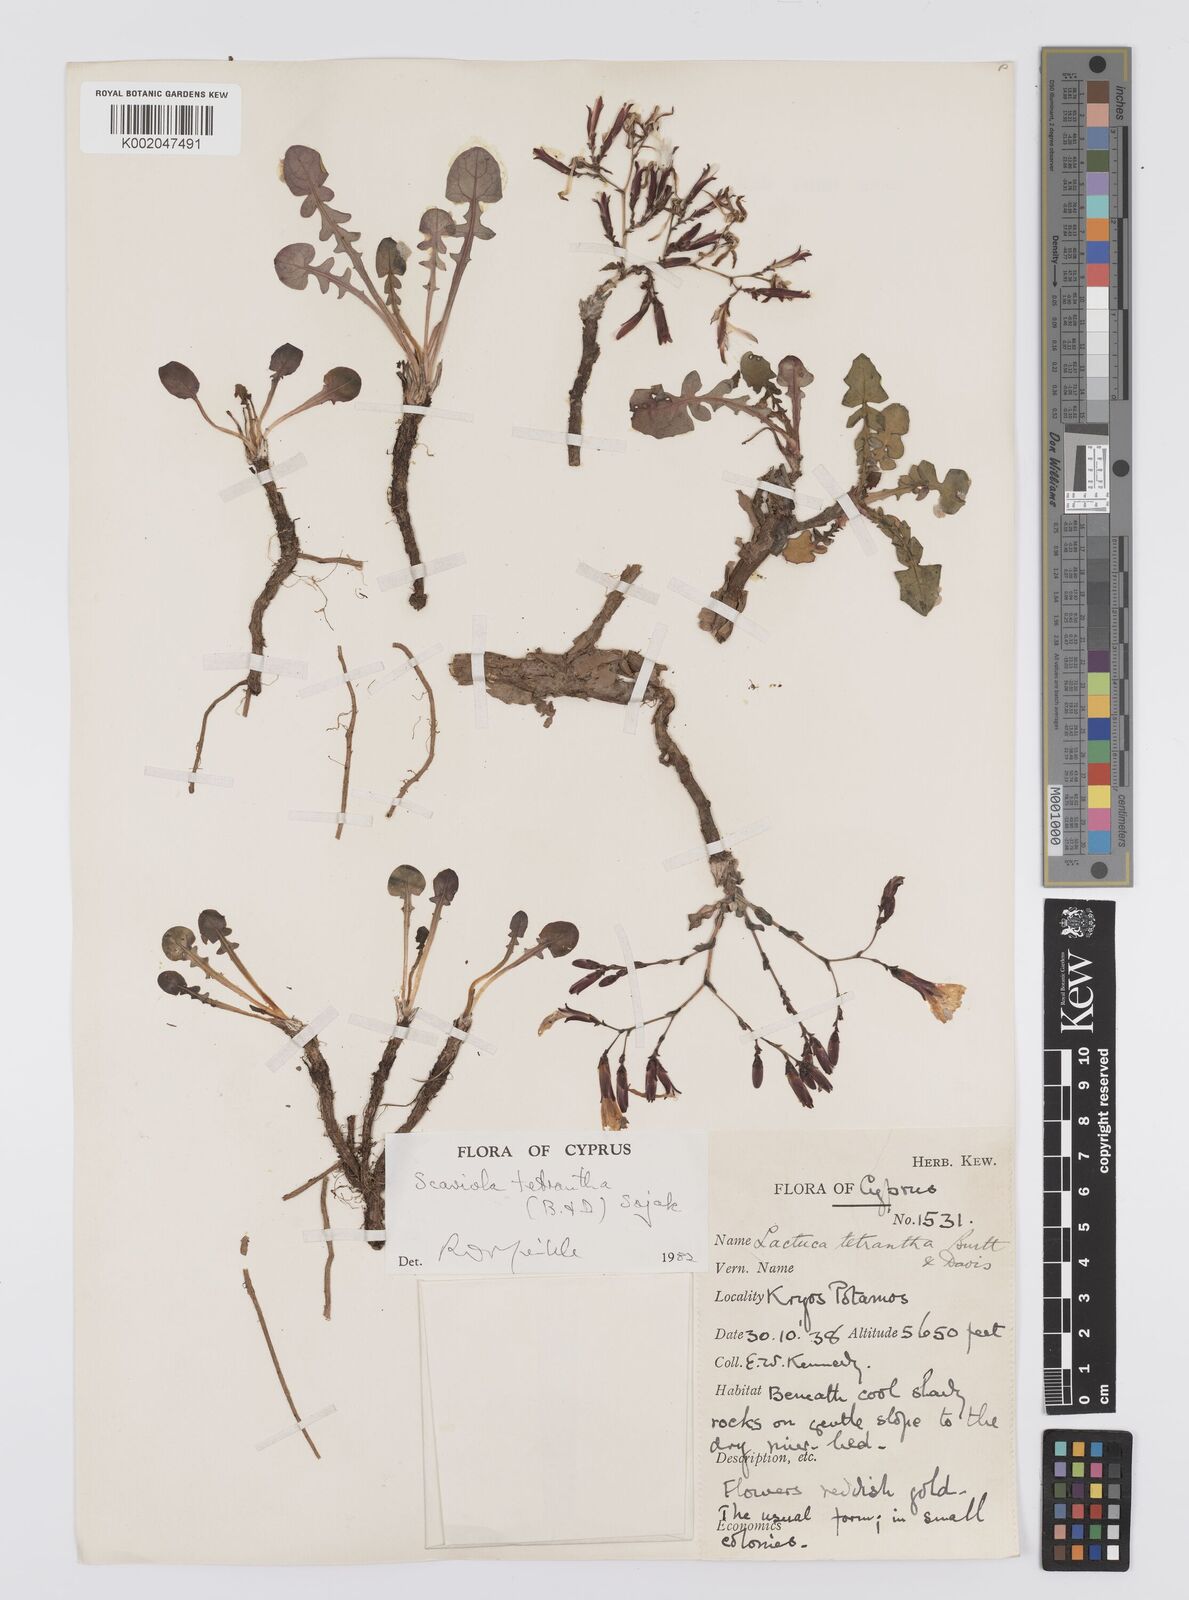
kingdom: Plantae
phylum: Tracheophyta
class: Magnoliopsida
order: Asterales
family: Asteraceae
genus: Lactuca
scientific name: Lactuca tetrantha
